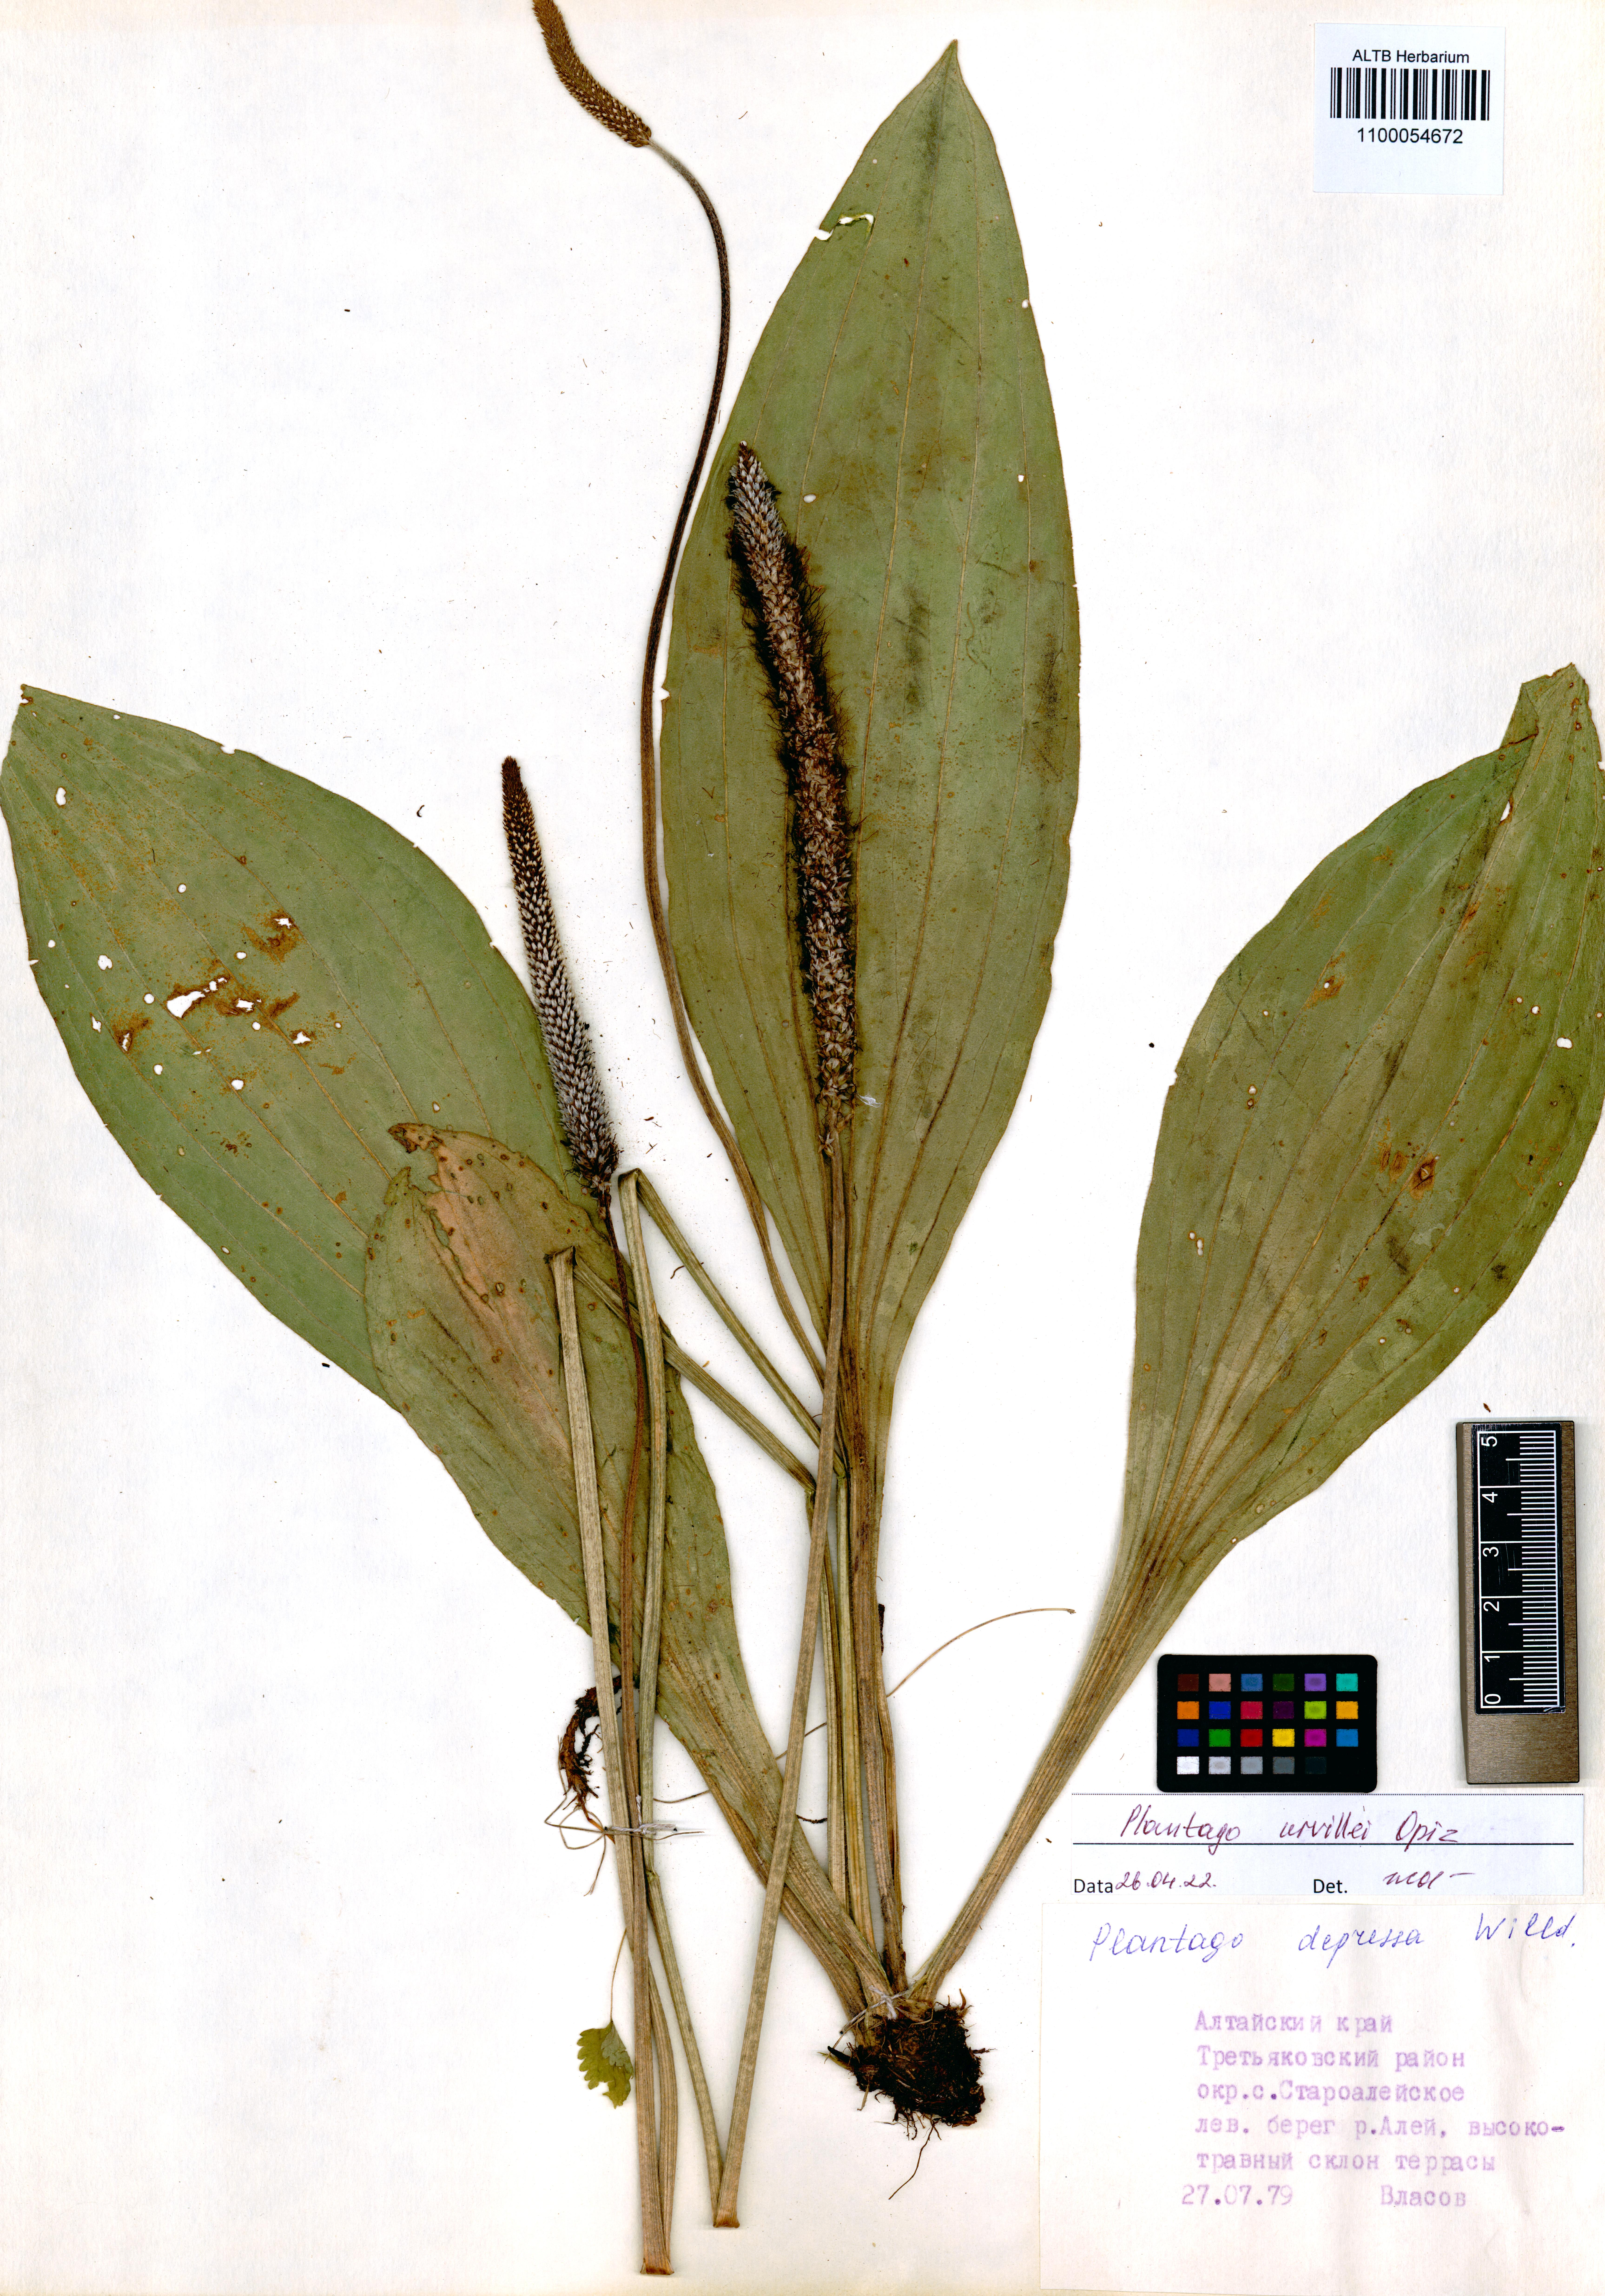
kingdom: Plantae
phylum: Tracheophyta
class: Magnoliopsida
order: Lamiales
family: Plantaginaceae
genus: Plantago
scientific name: Plantago urvillei
